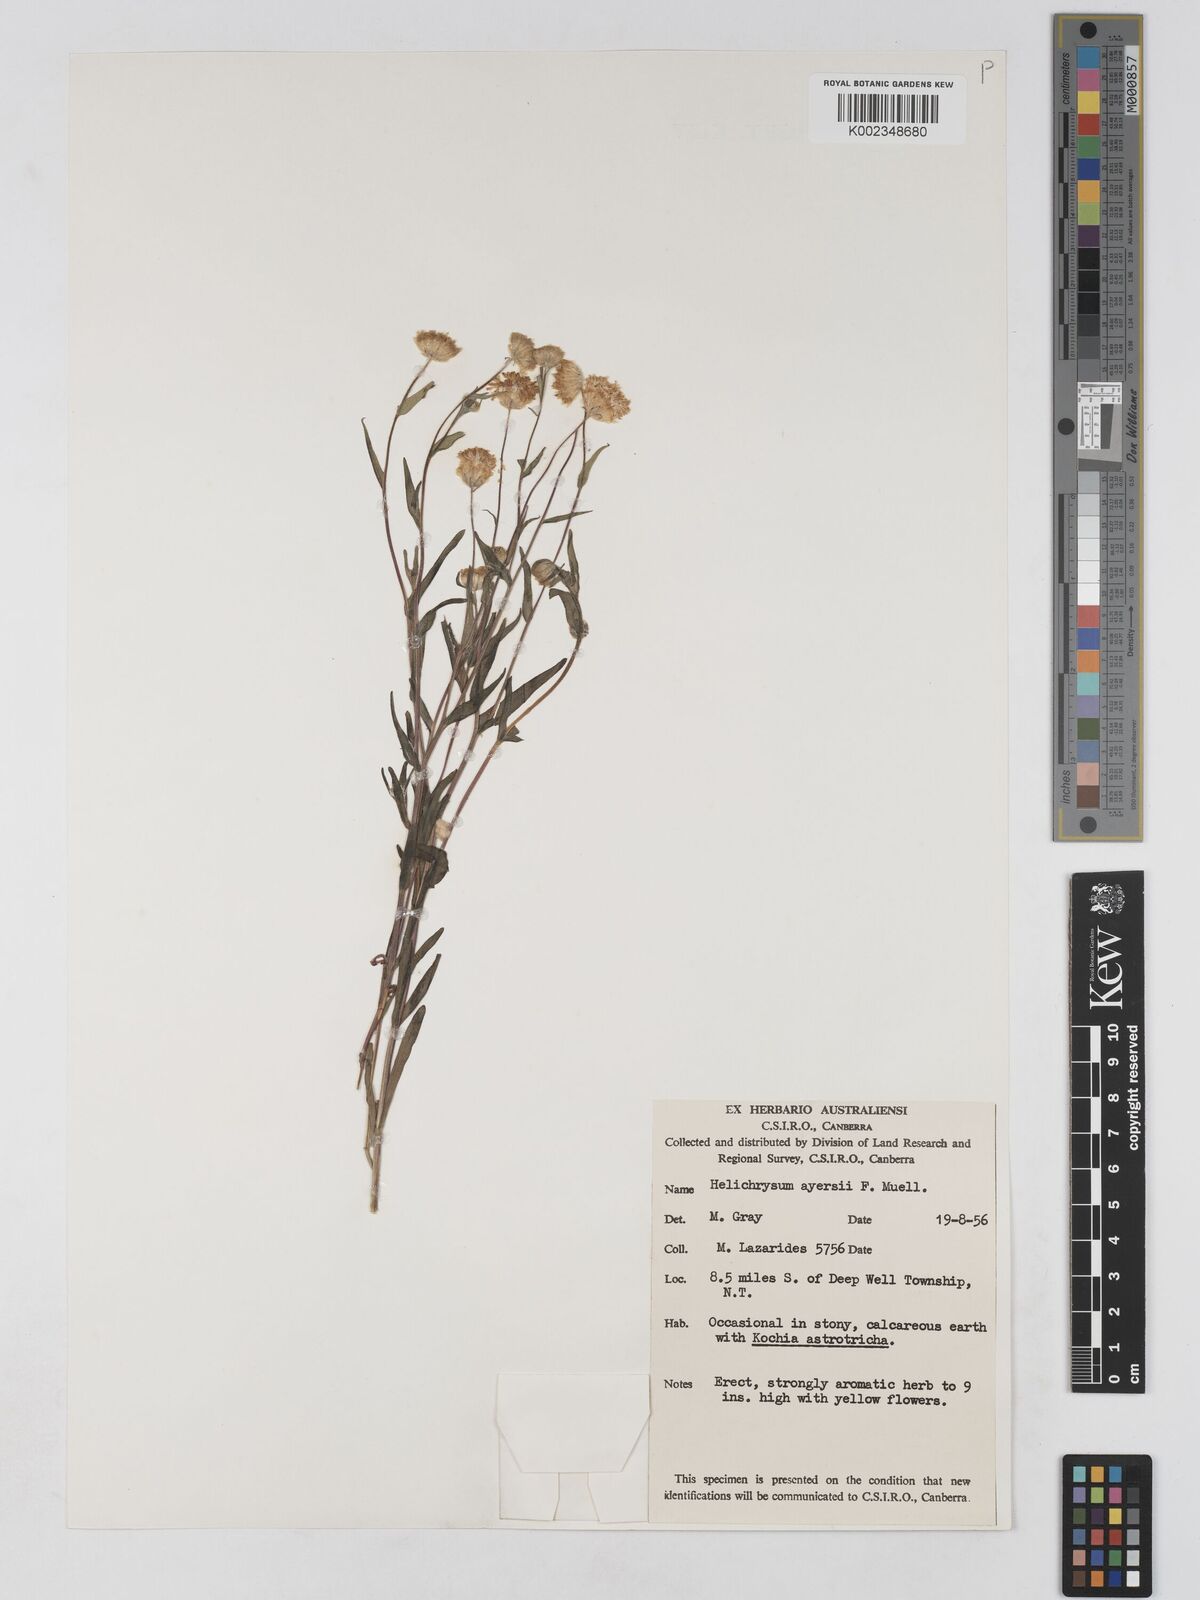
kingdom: Plantae
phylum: Tracheophyta
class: Magnoliopsida
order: Asterales
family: Asteraceae
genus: Schoenia
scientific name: Schoenia ayersii
